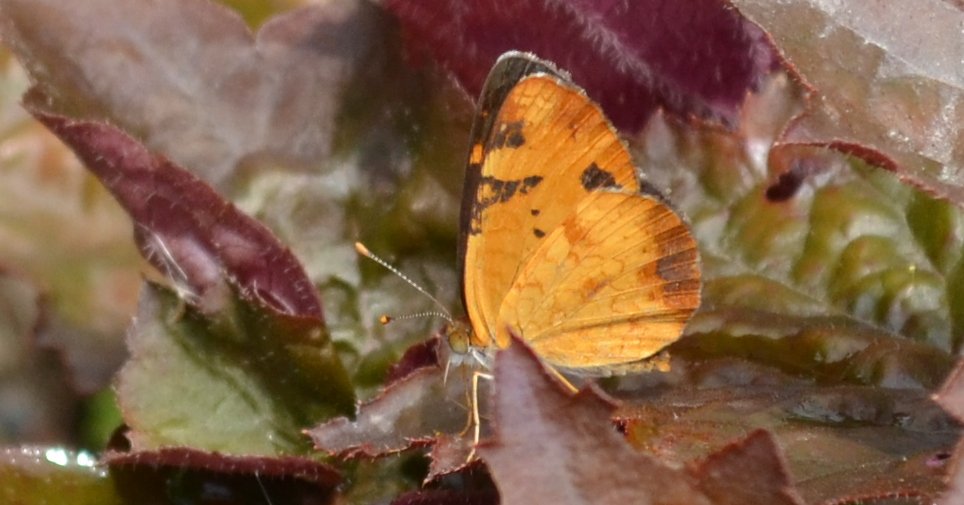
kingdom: Animalia
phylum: Arthropoda
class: Insecta
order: Lepidoptera
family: Nymphalidae
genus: Phyciodes
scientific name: Phyciodes tharos
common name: Northern Crescent
